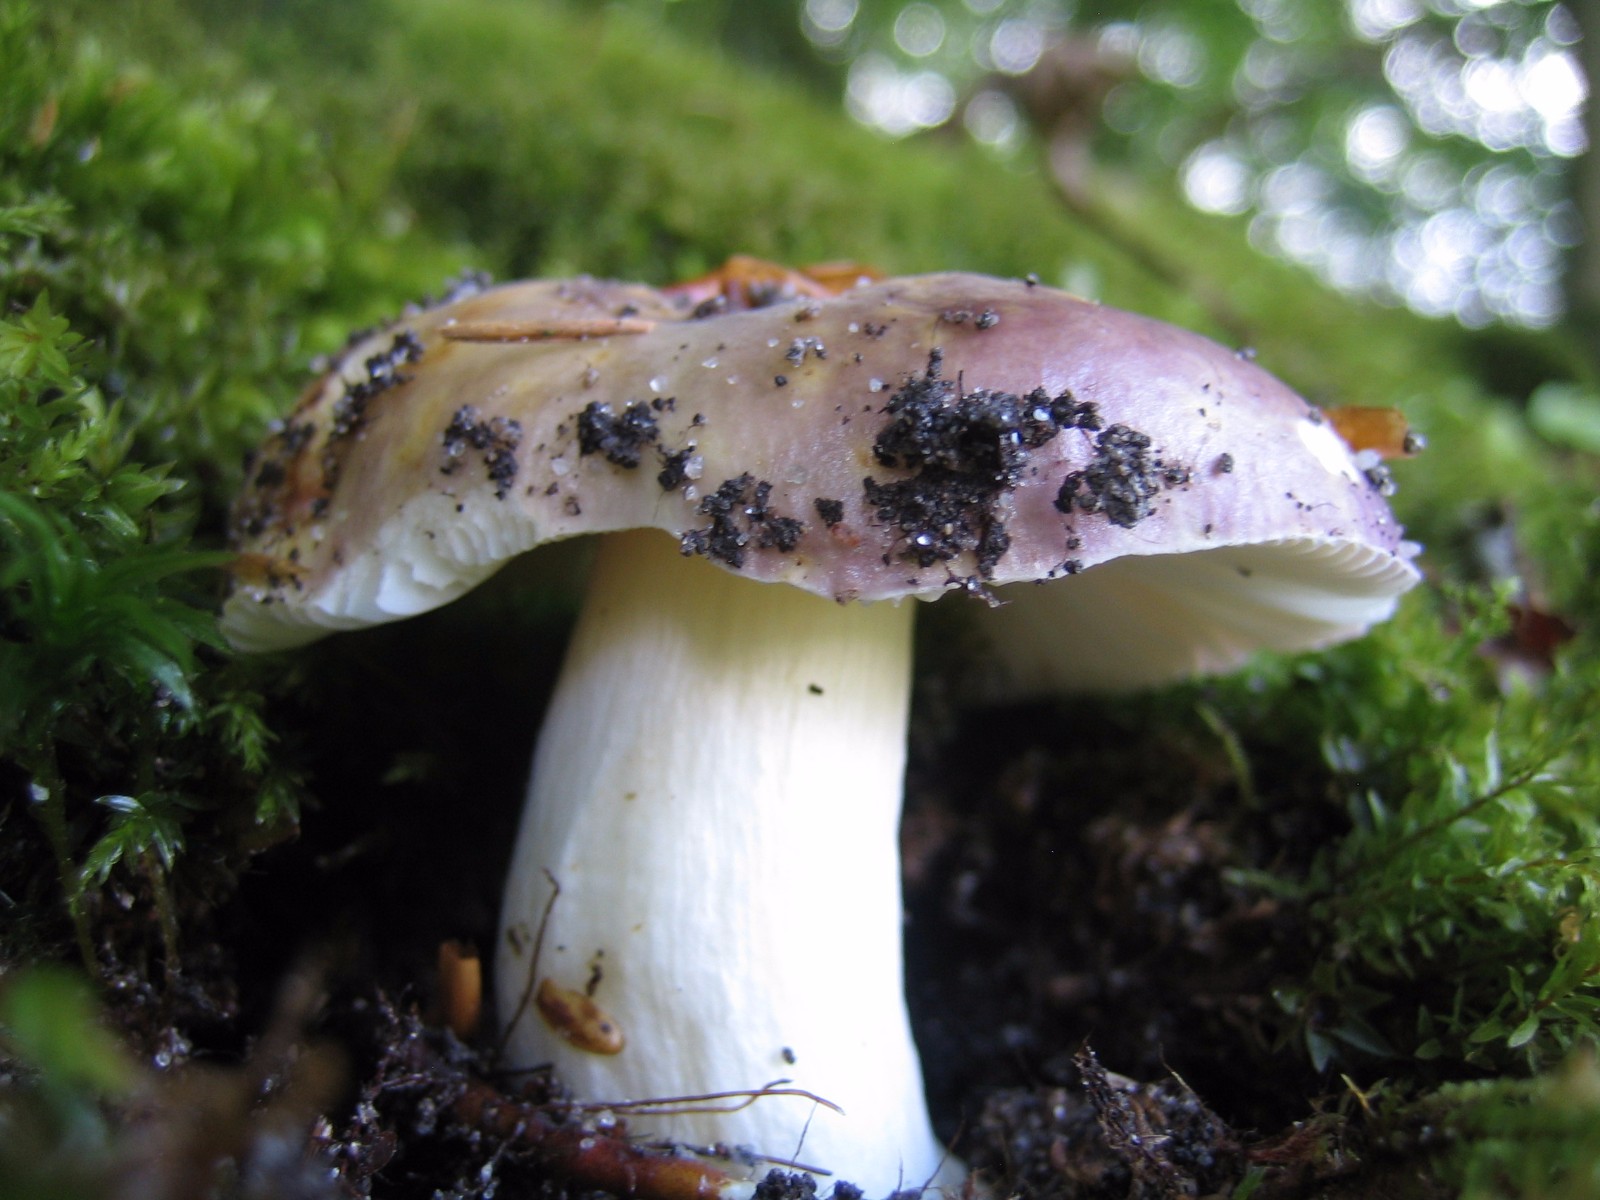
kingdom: Fungi
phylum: Basidiomycota
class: Agaricomycetes
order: Russulales
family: Russulaceae
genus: Russula
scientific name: Russula
